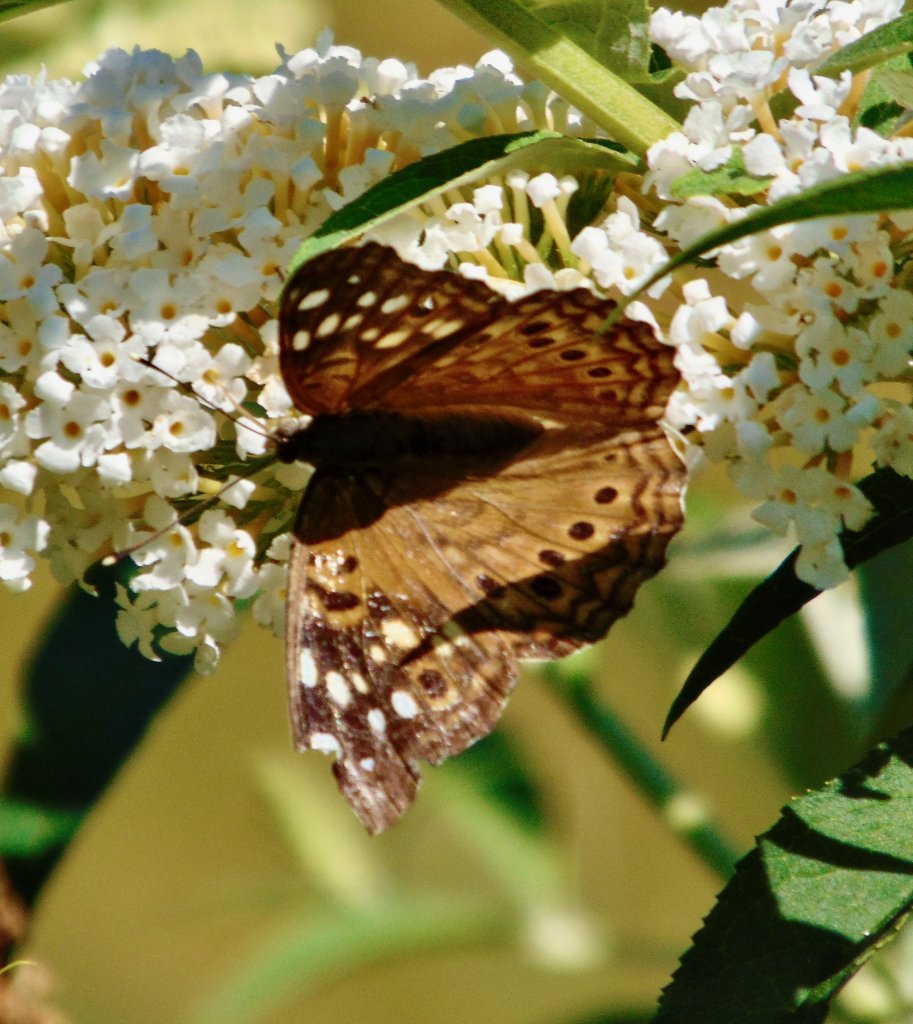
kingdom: Animalia
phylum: Arthropoda
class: Insecta
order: Lepidoptera
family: Nymphalidae
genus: Asterocampa
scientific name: Asterocampa celtis
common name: Hackberry Emperor
